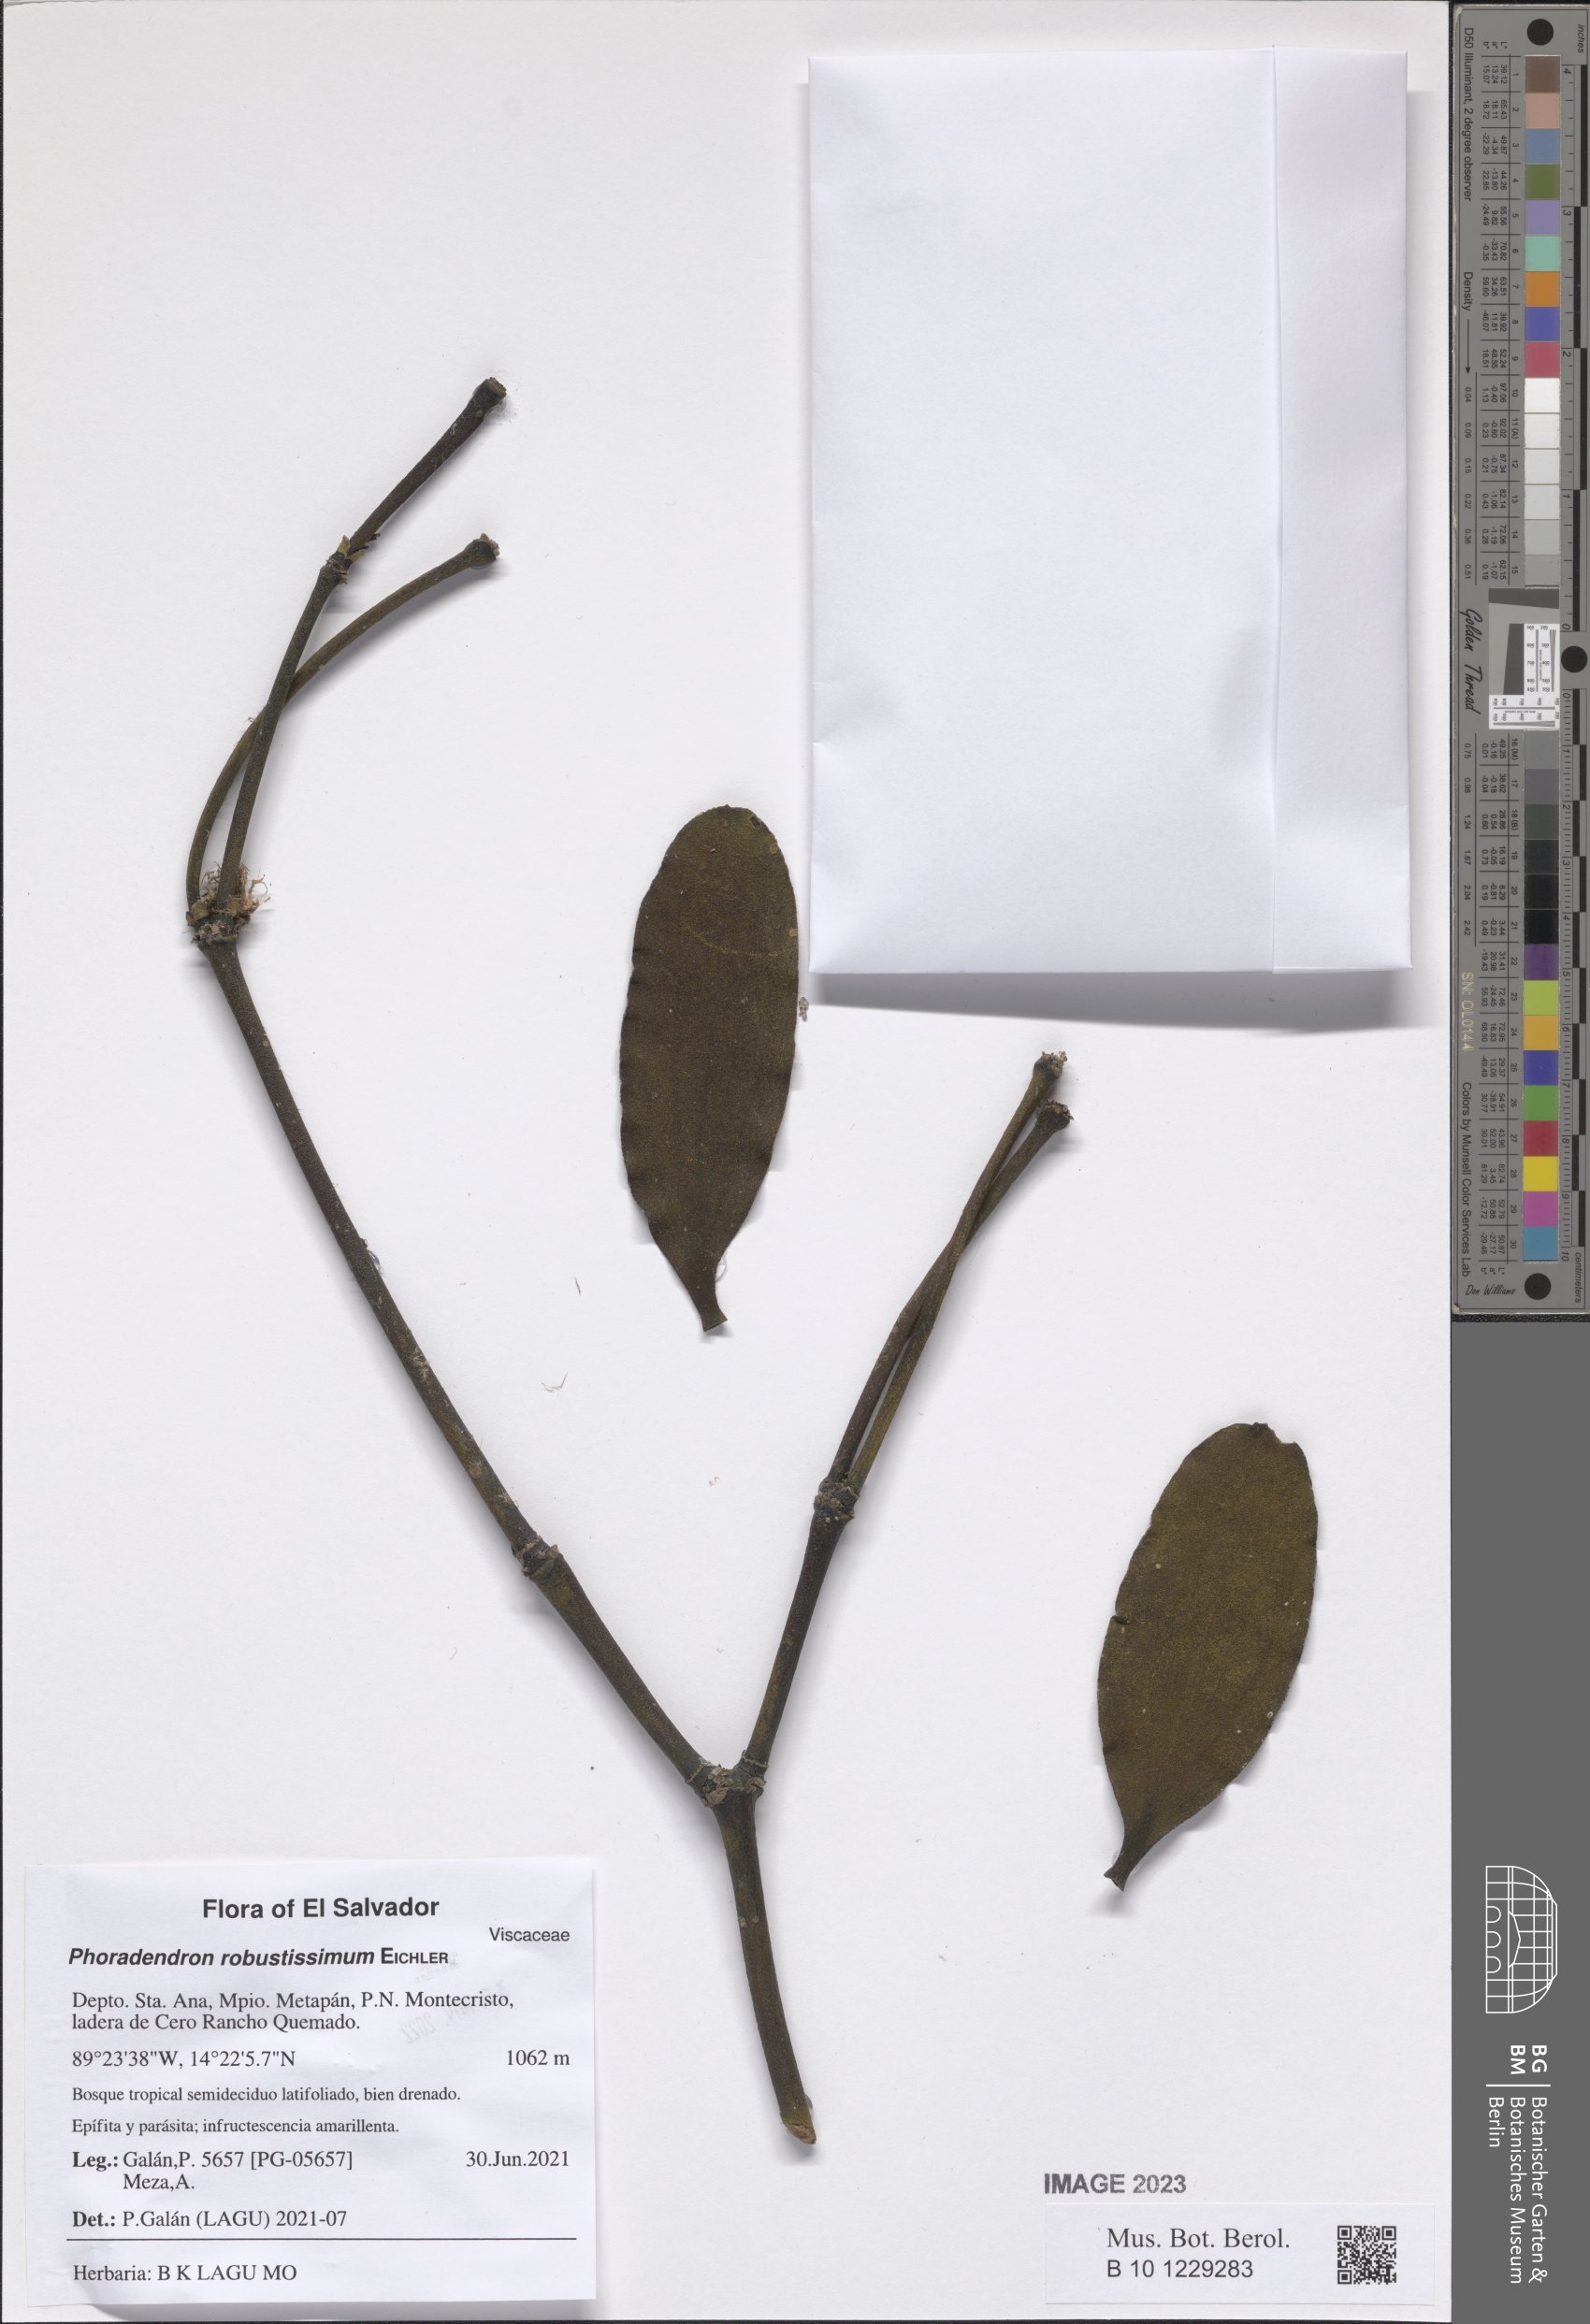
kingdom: Plantae
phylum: Tracheophyta
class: Magnoliopsida
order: Santalales
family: Viscaceae
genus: Phoradendron
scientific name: Phoradendron robustissimum
